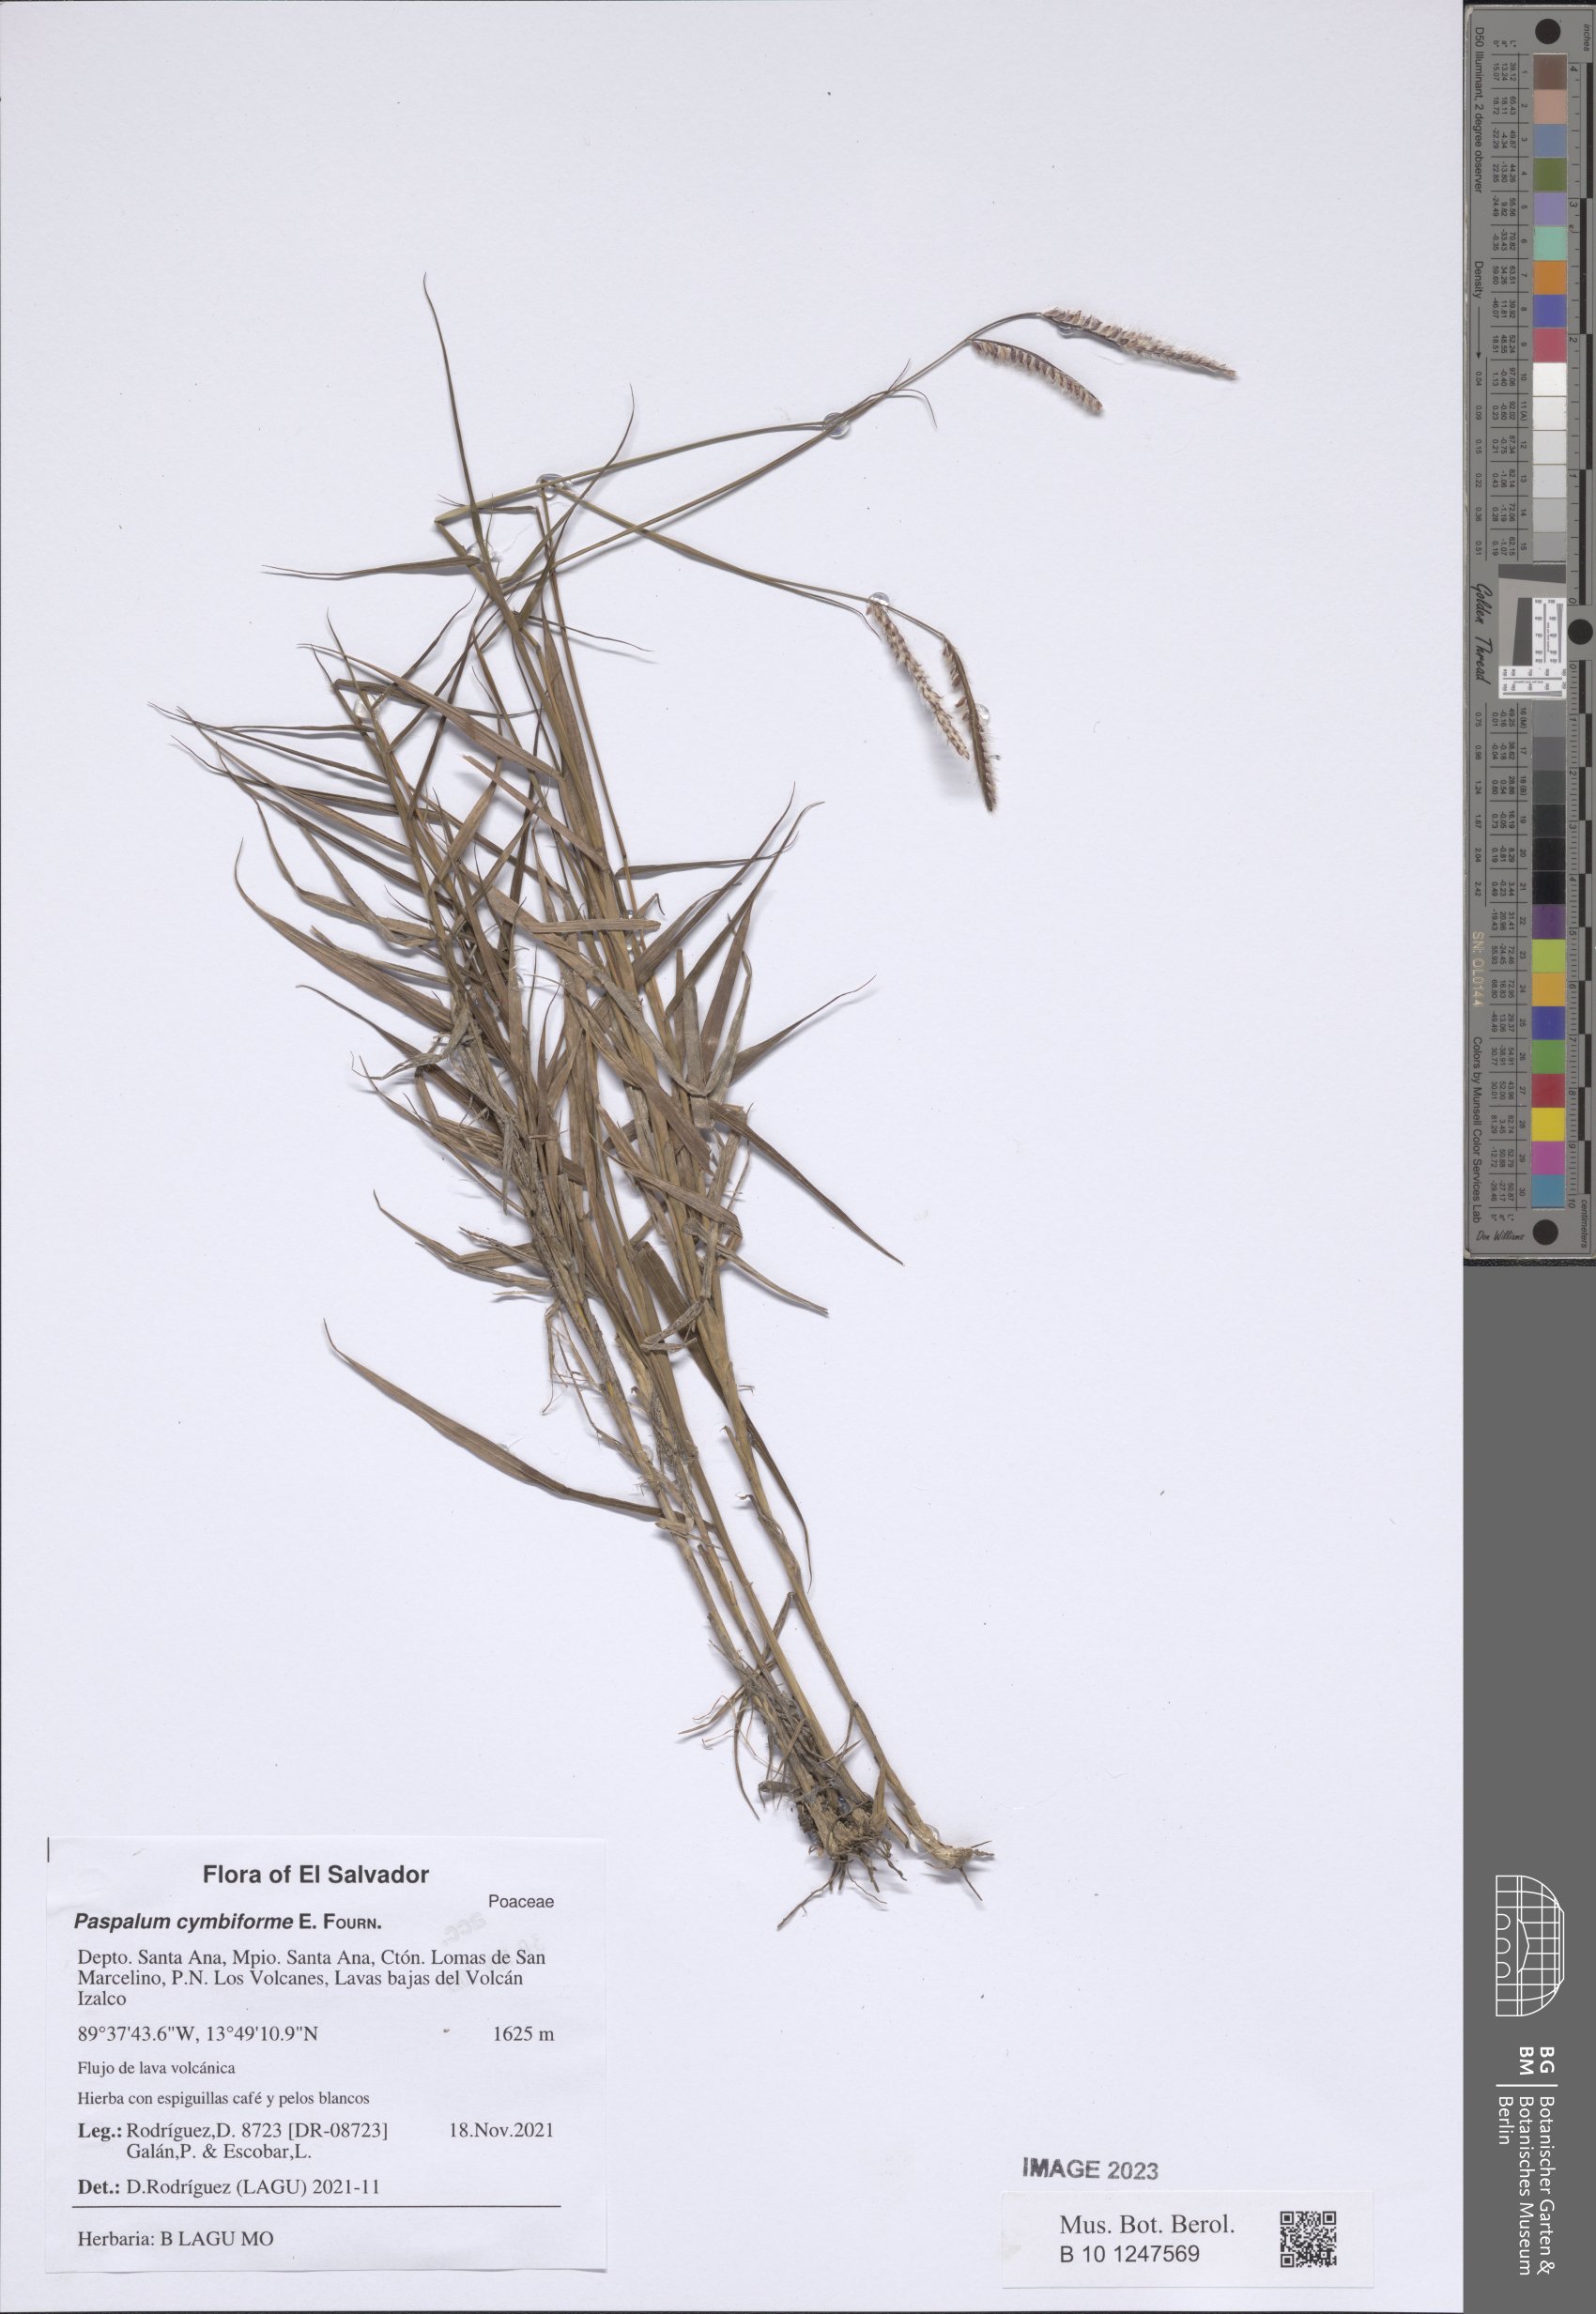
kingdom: Plantae
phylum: Tracheophyta
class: Liliopsida
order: Poales
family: Poaceae
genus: Paspalum
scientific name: Paspalum cymbiforme
